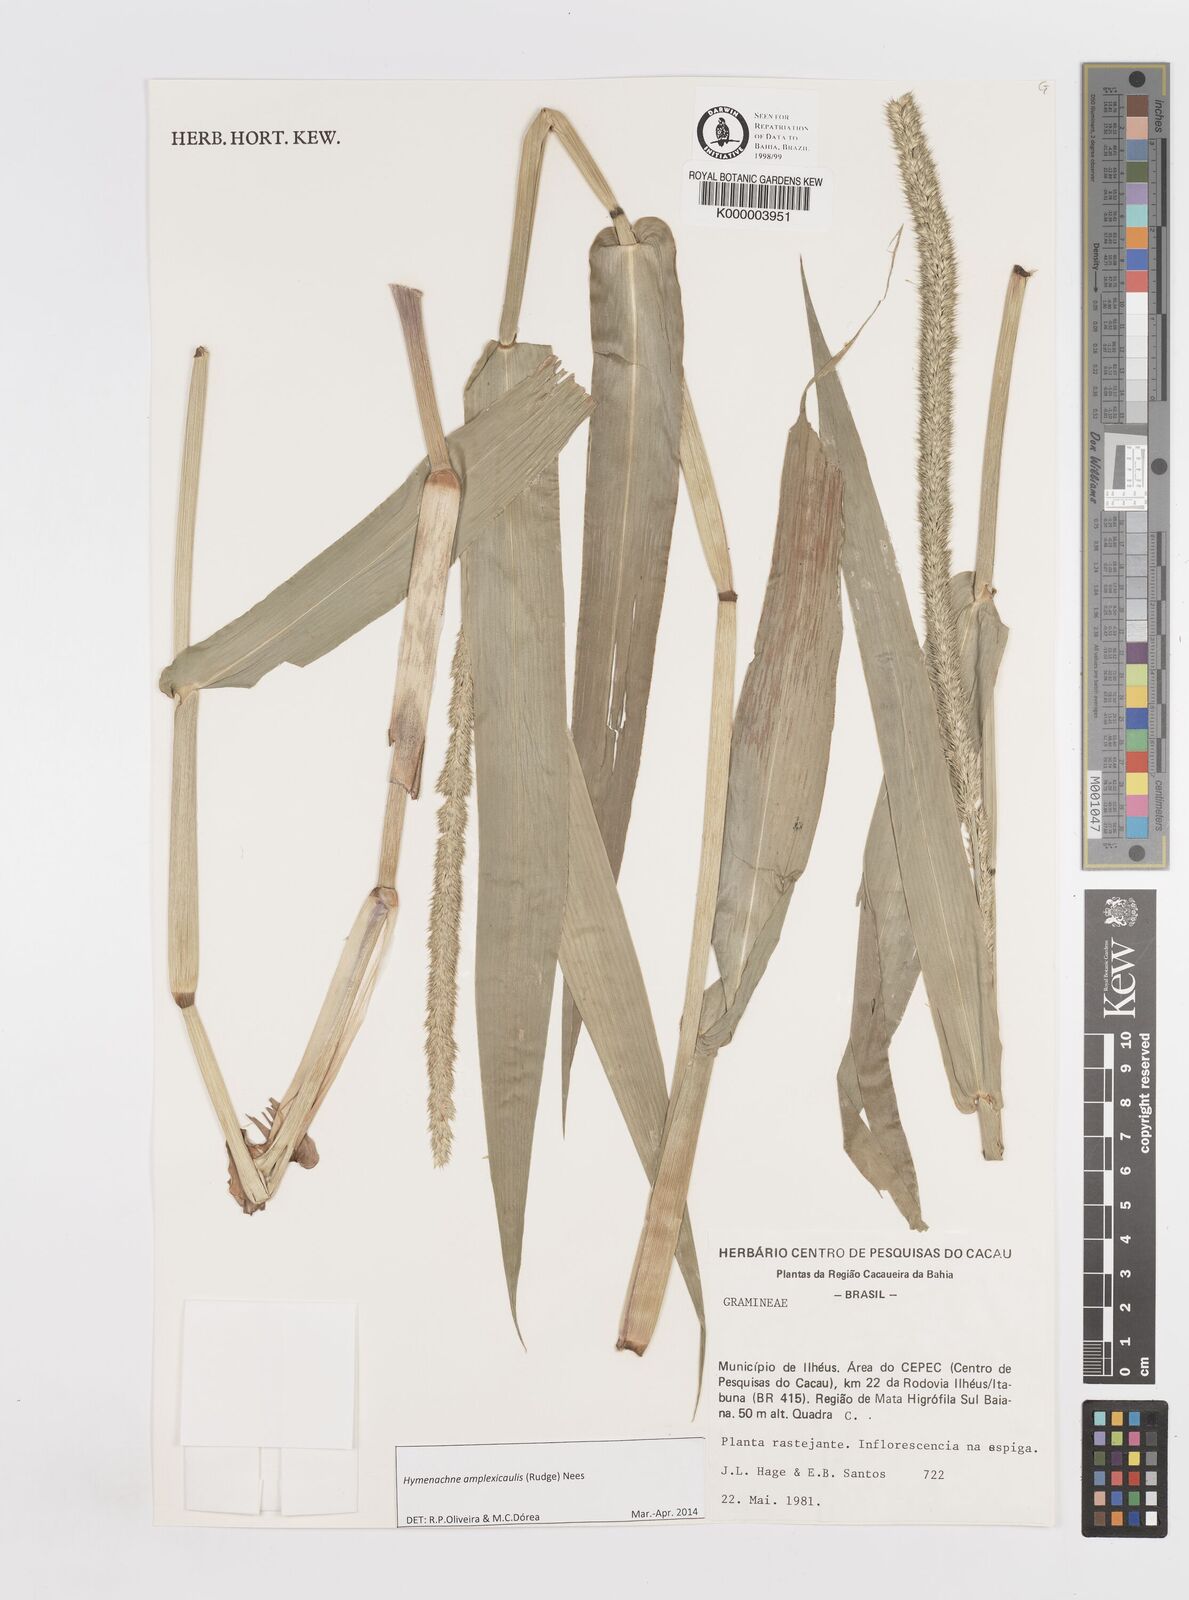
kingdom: Plantae
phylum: Tracheophyta
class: Liliopsida
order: Poales
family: Poaceae
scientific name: Poaceae
